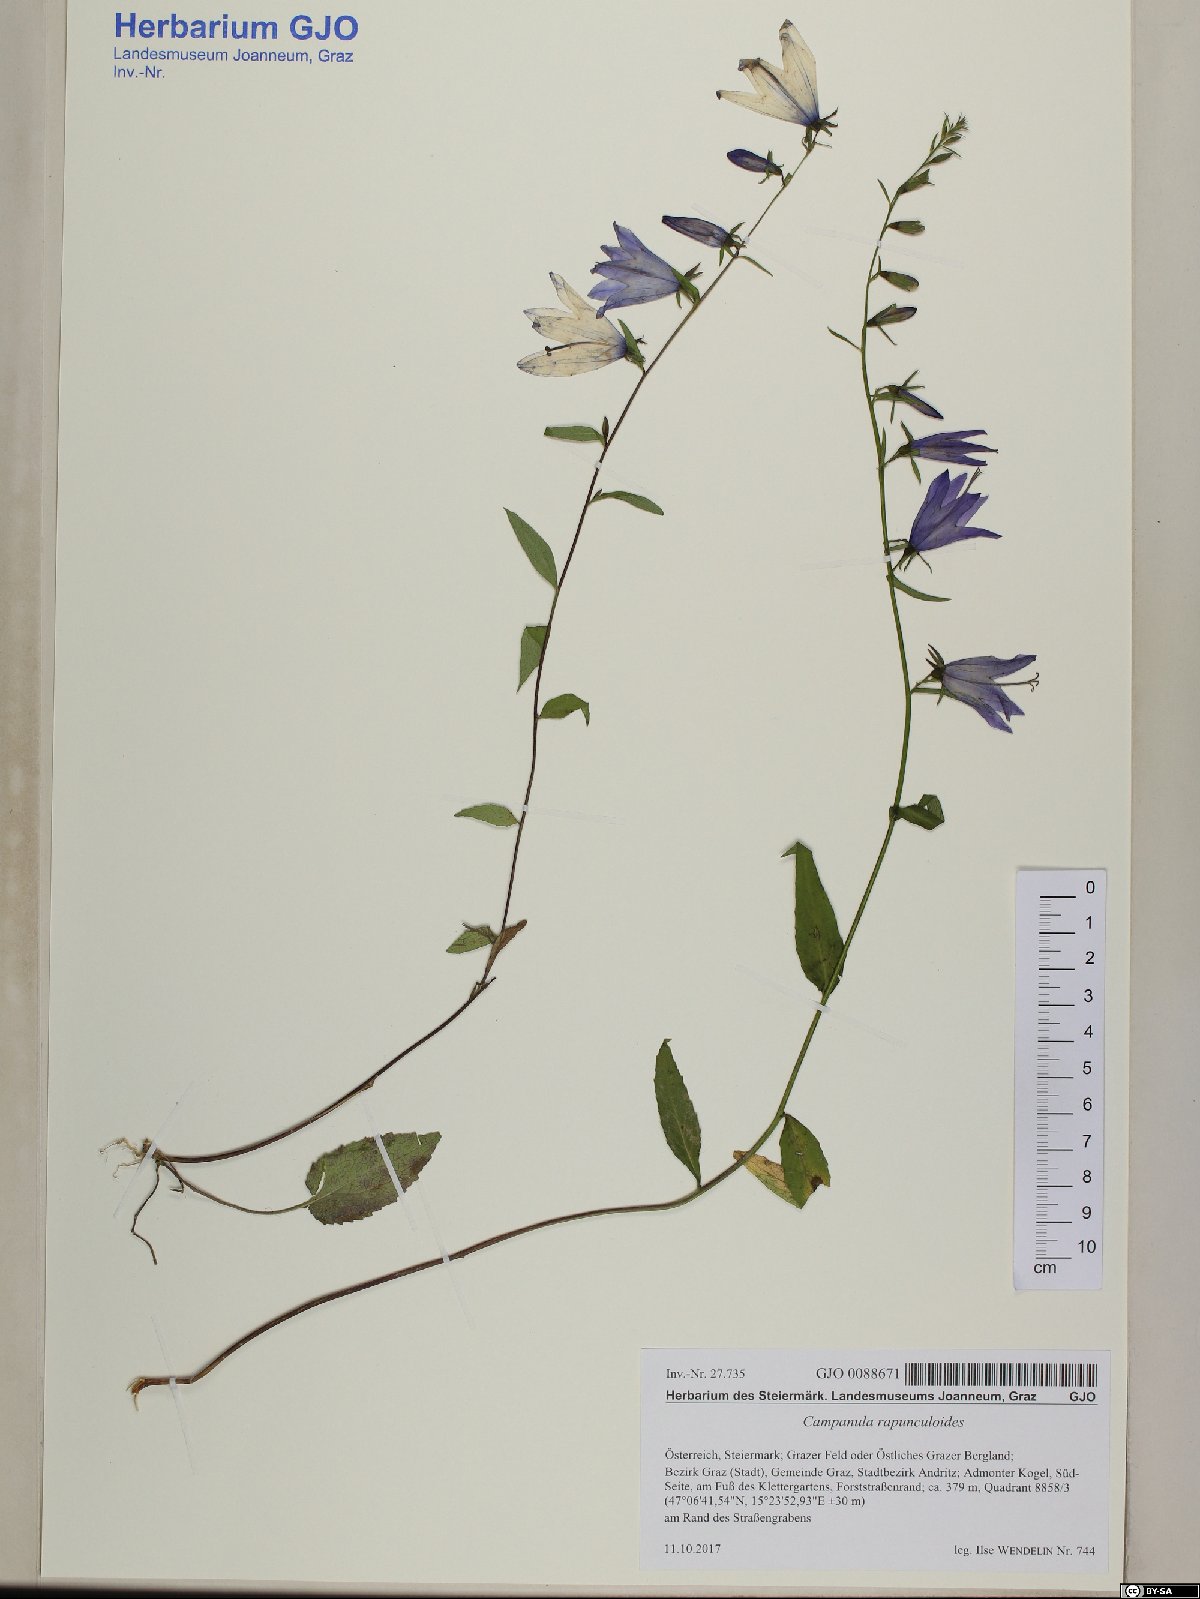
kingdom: Plantae
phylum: Tracheophyta
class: Magnoliopsida
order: Asterales
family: Campanulaceae
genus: Campanula
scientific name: Campanula rapunculoides
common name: Creeping bellflower
